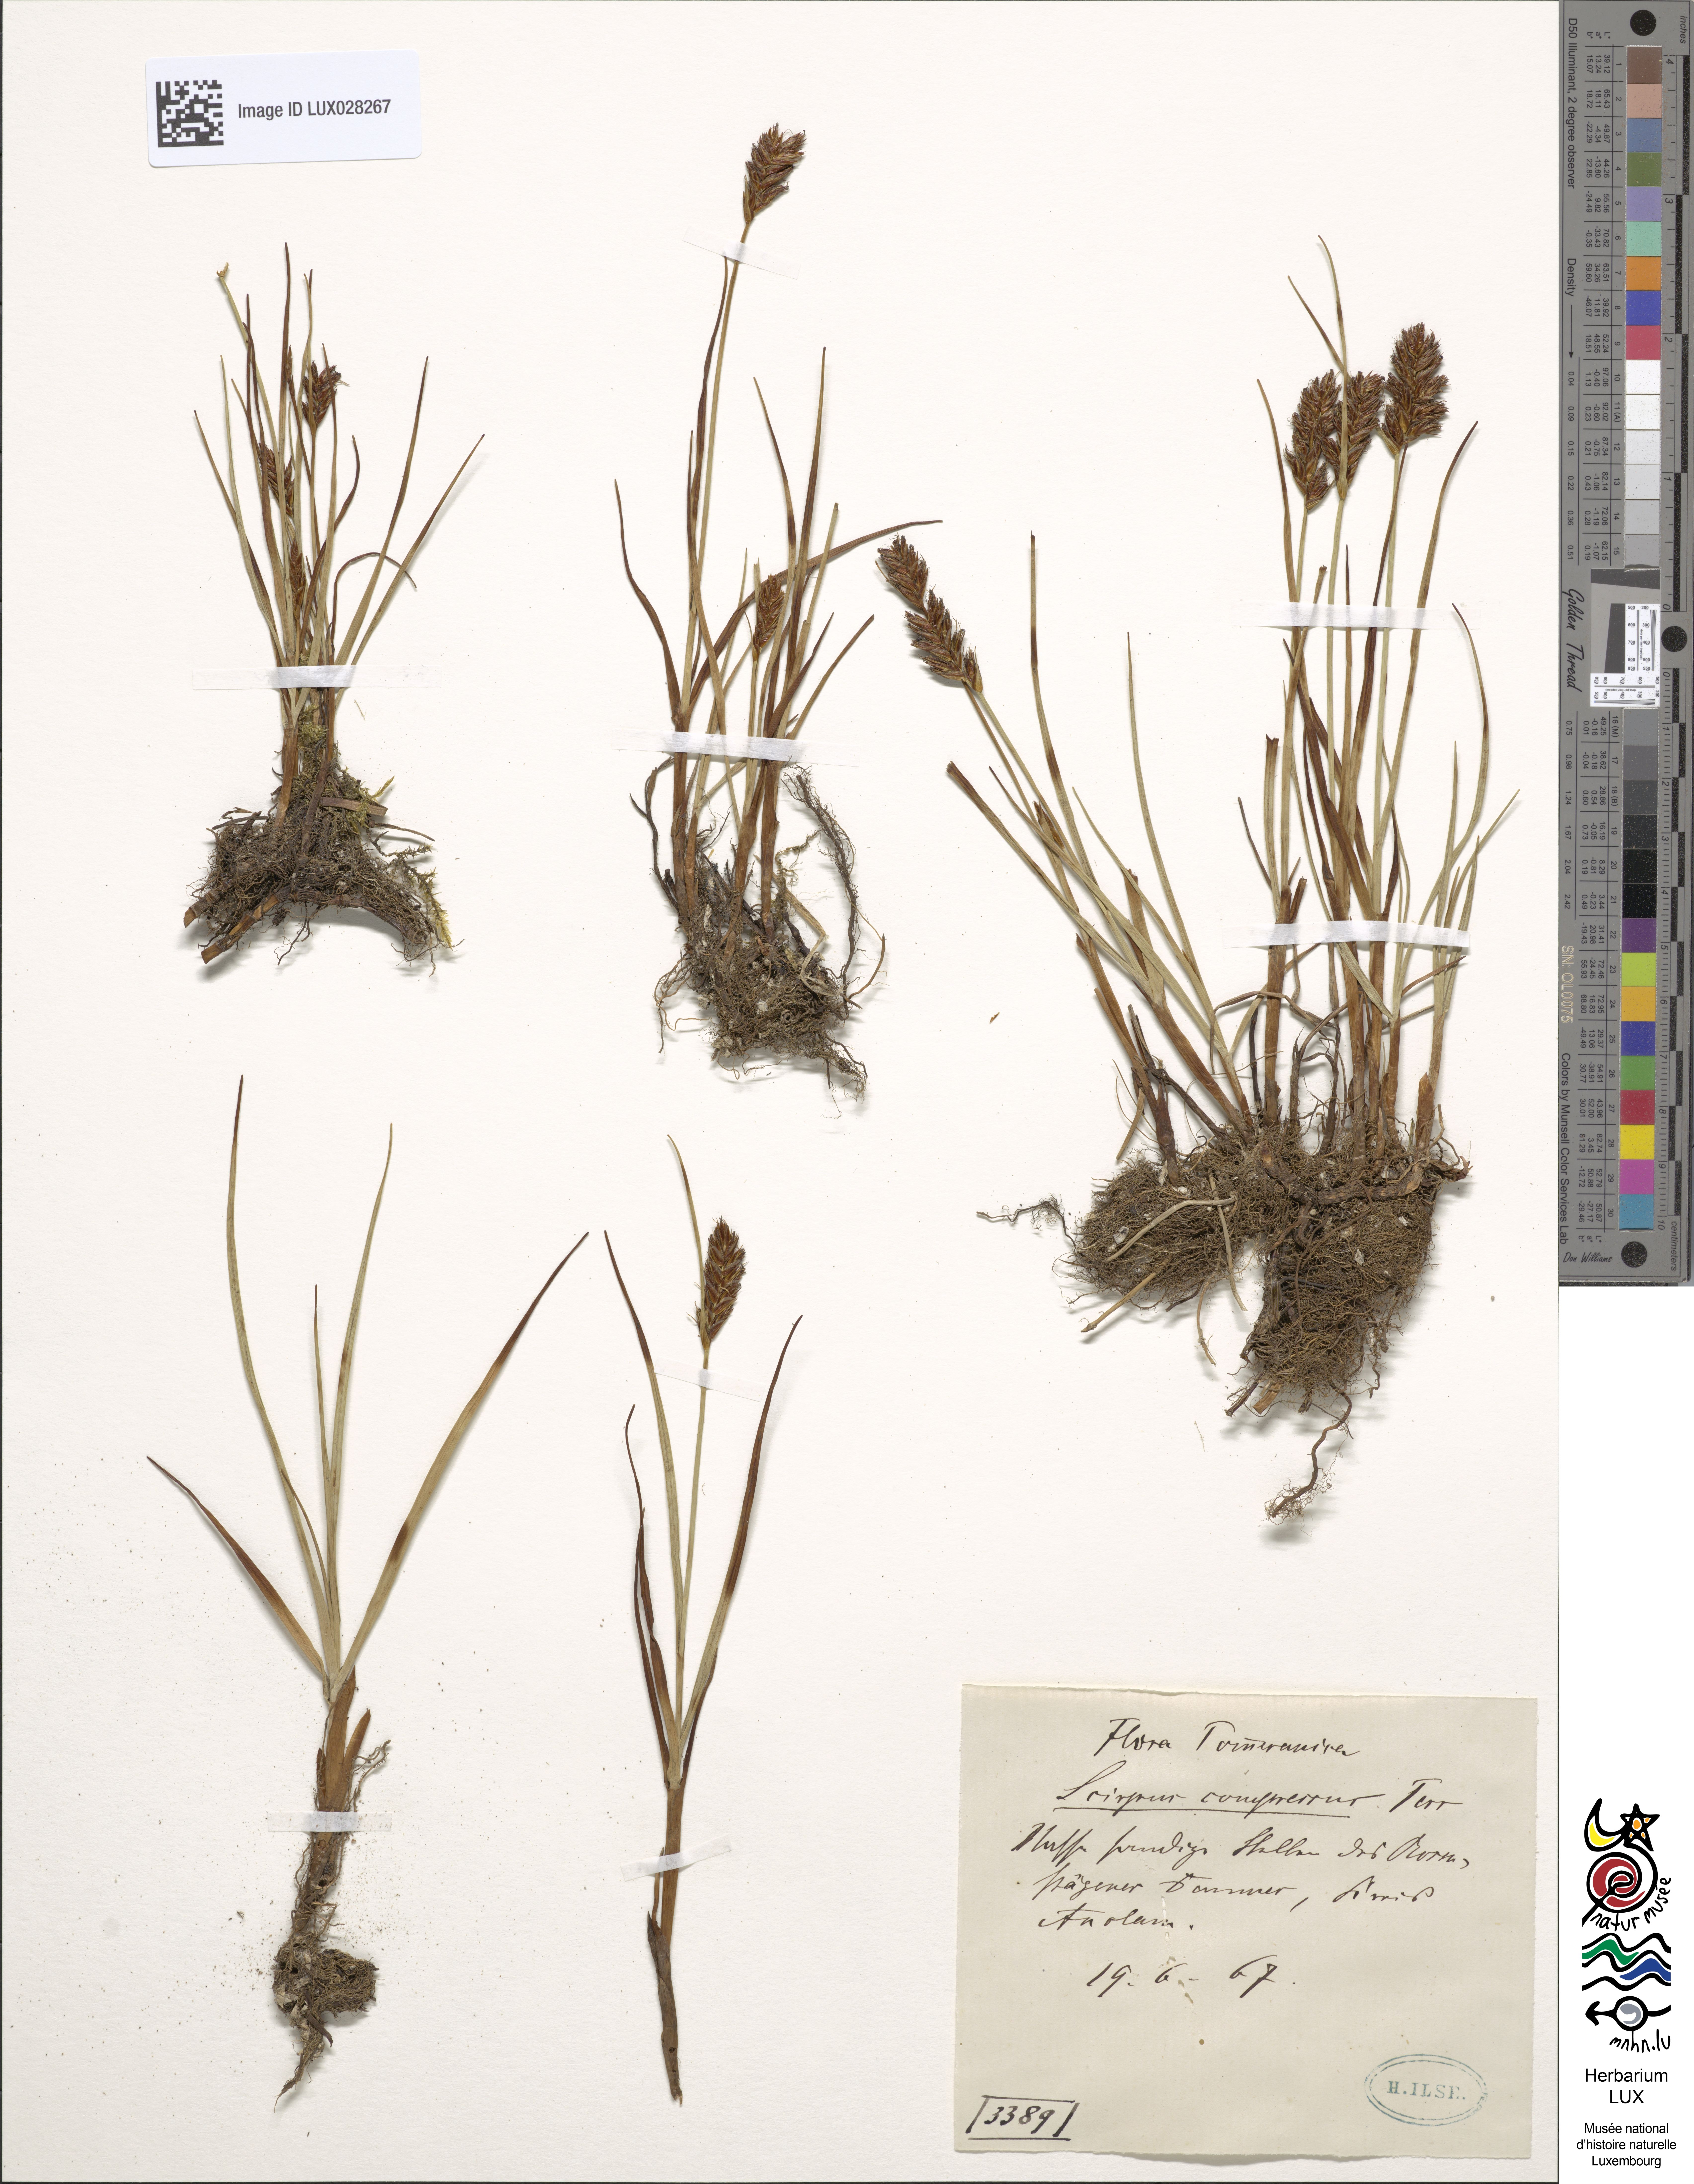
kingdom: Plantae
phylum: Tracheophyta
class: Liliopsida
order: Poales
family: Cyperaceae
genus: Blysmus
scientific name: Blysmus compressus
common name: Flat-sedge
